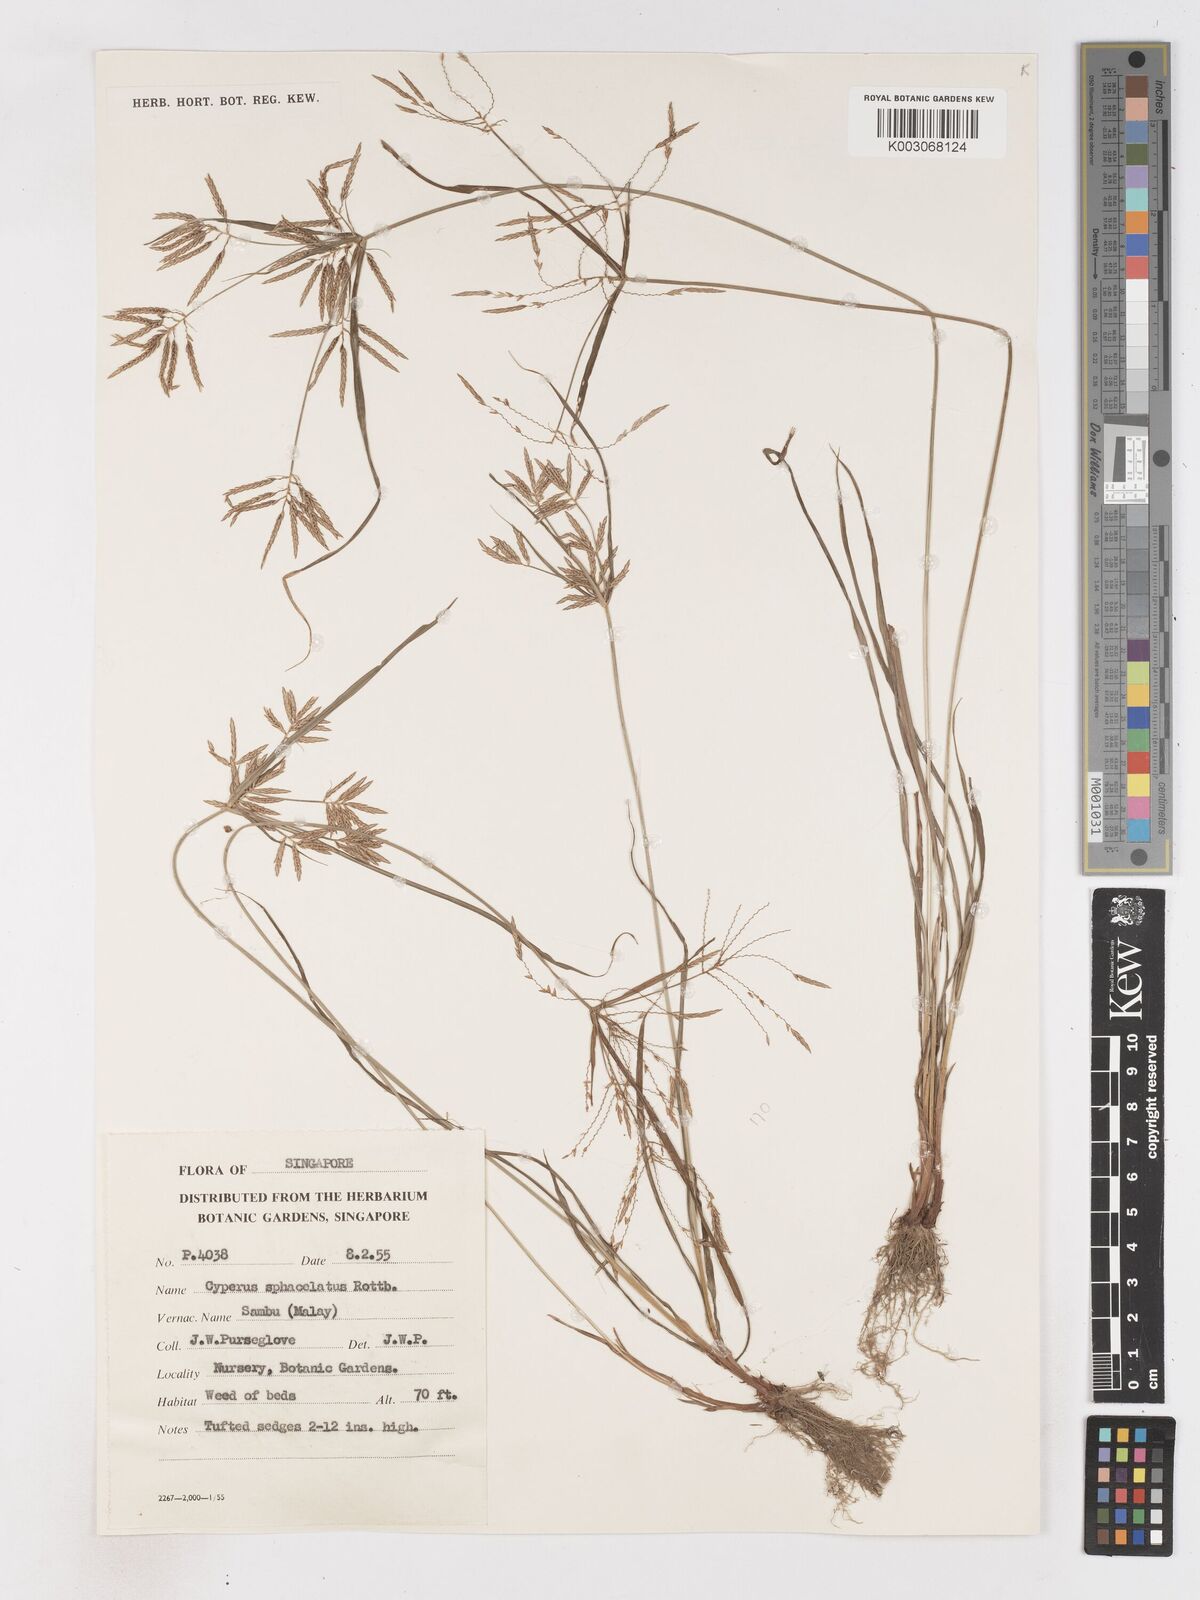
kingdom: Plantae
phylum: Tracheophyta
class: Liliopsida
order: Poales
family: Cyperaceae
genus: Cyperus
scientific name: Cyperus sphacelatus
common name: Roadside flatsedge
